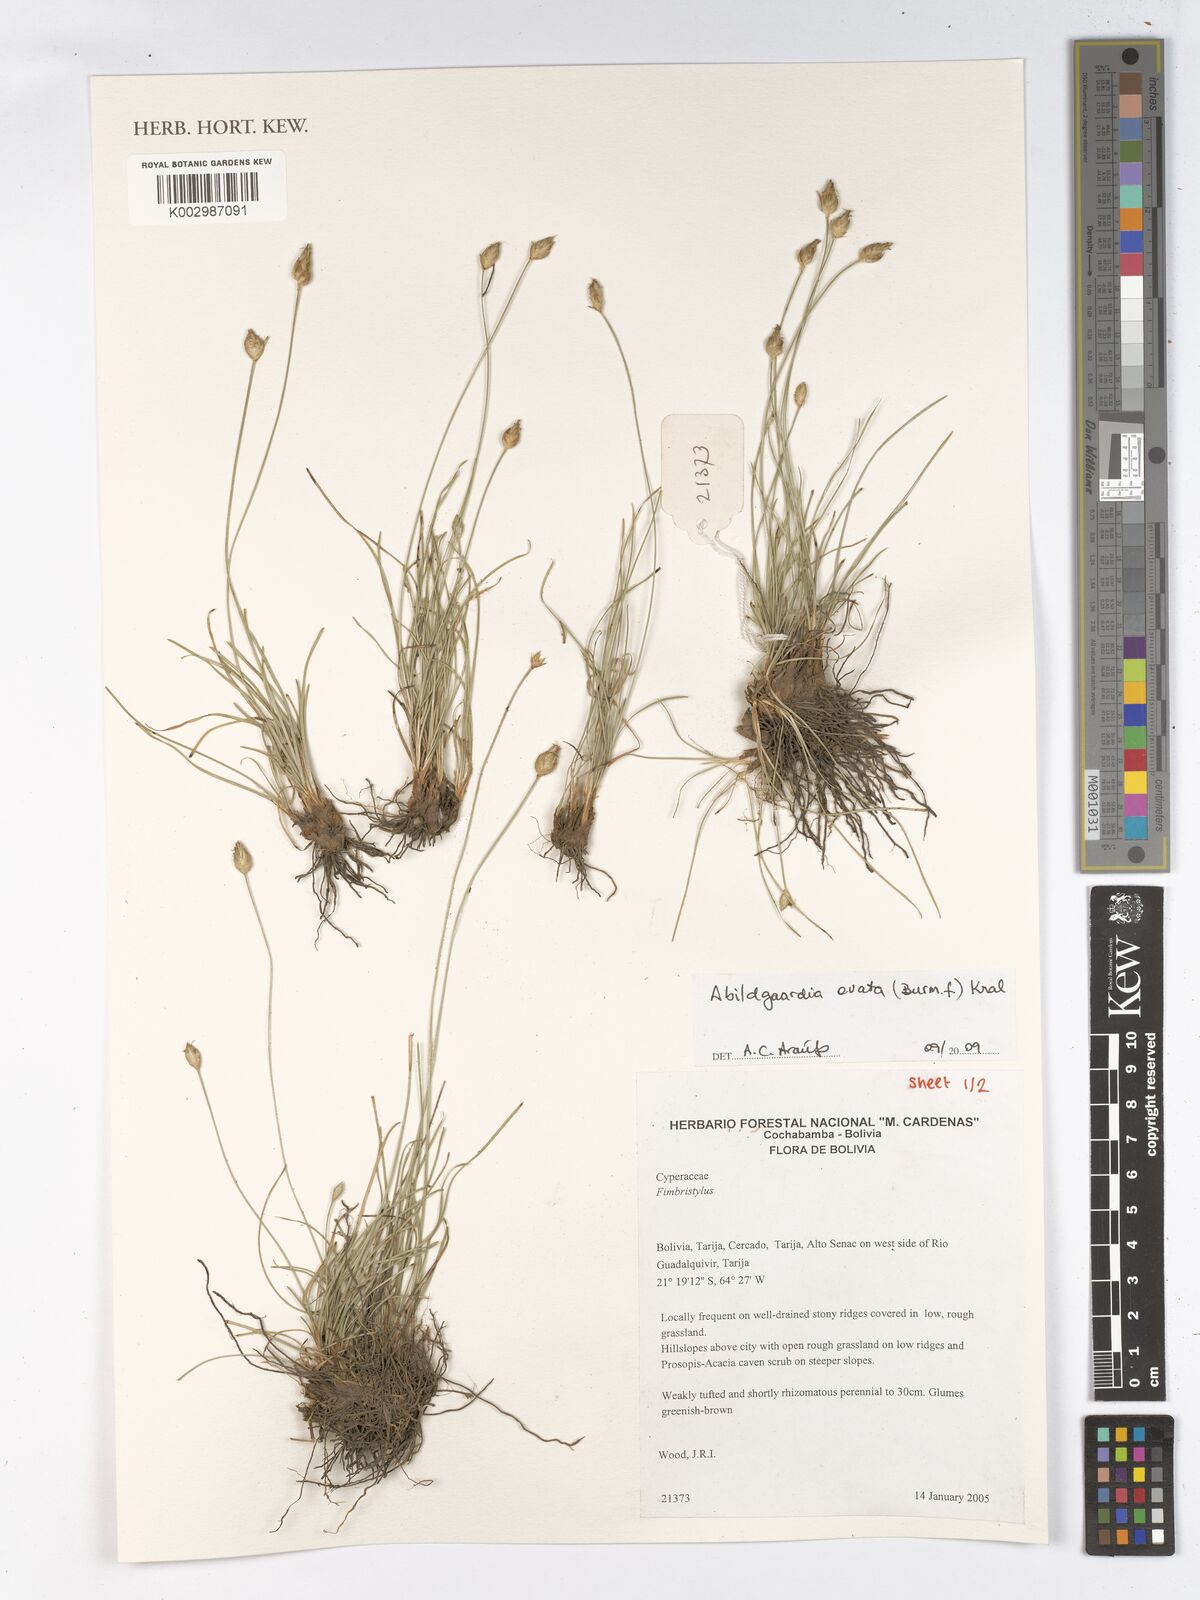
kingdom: Plantae
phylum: Tracheophyta
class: Liliopsida
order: Poales
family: Cyperaceae
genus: Abildgaardia
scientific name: Abildgaardia ovata
